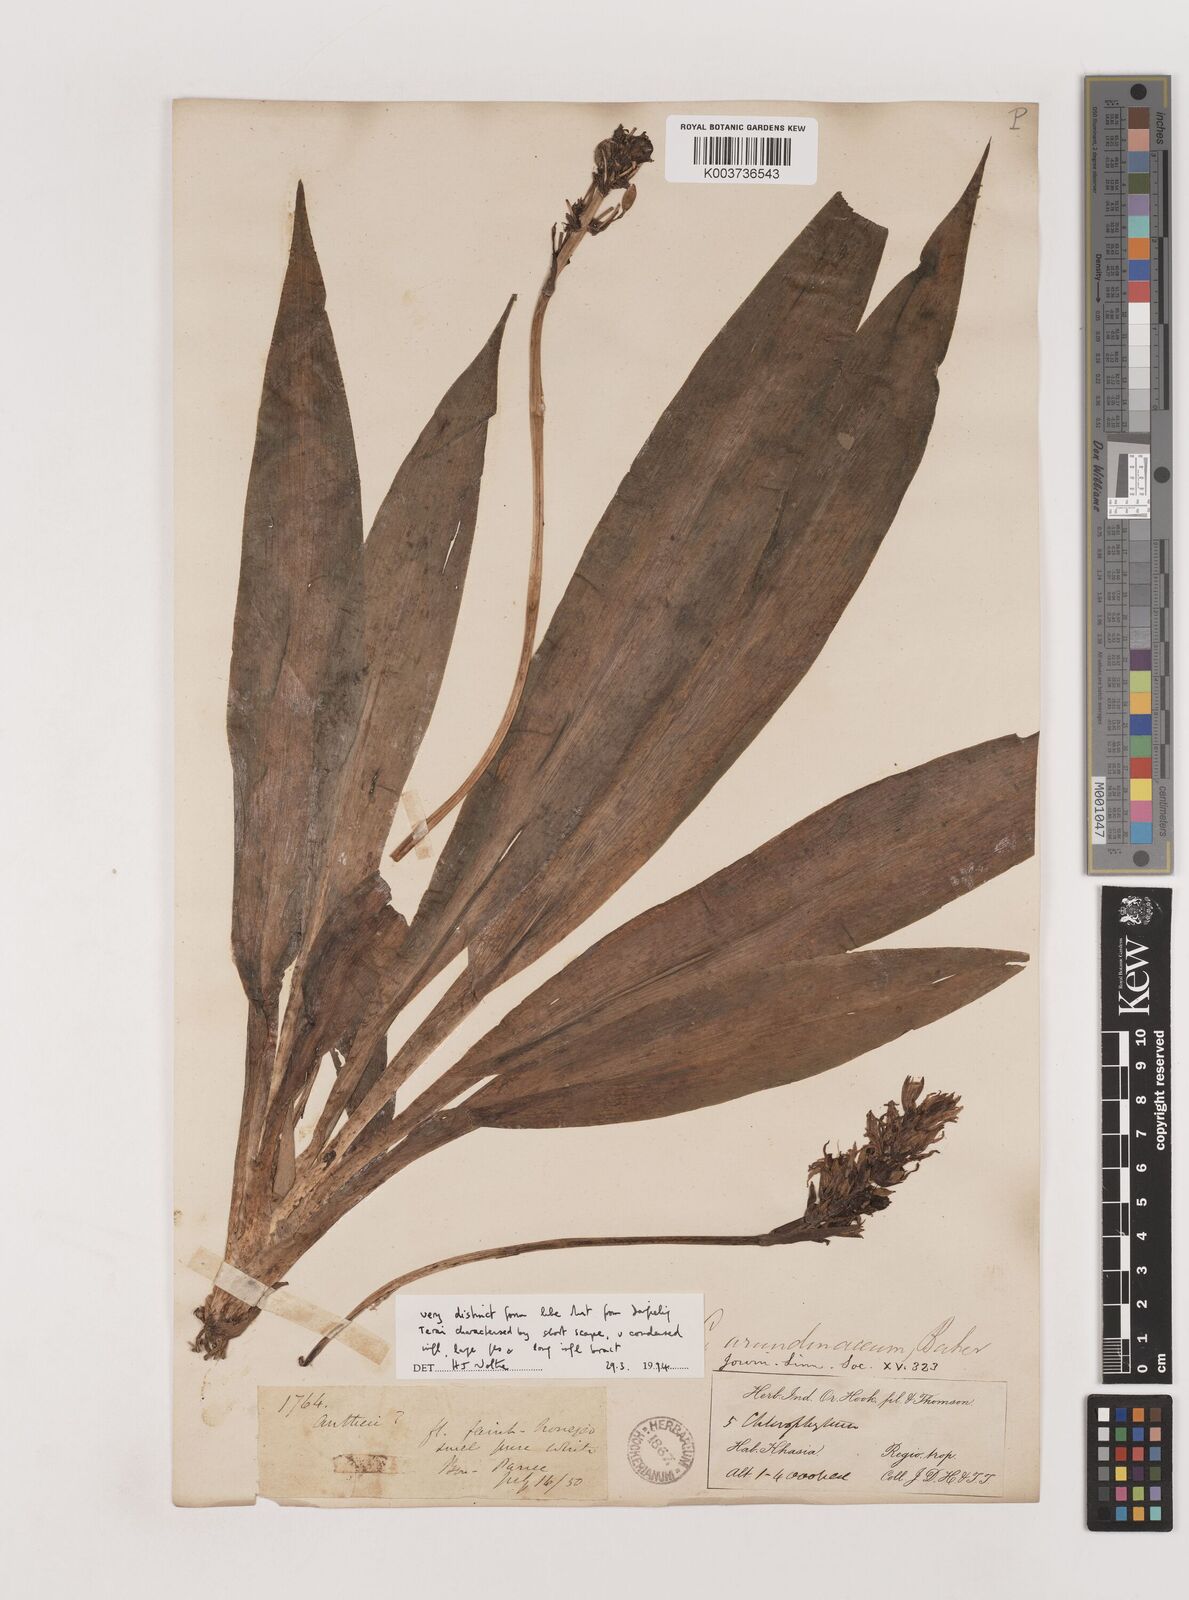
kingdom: Plantae
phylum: Tracheophyta
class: Liliopsida
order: Asparagales
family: Asparagaceae
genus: Chlorophytum
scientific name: Chlorophytum arundinaceum
